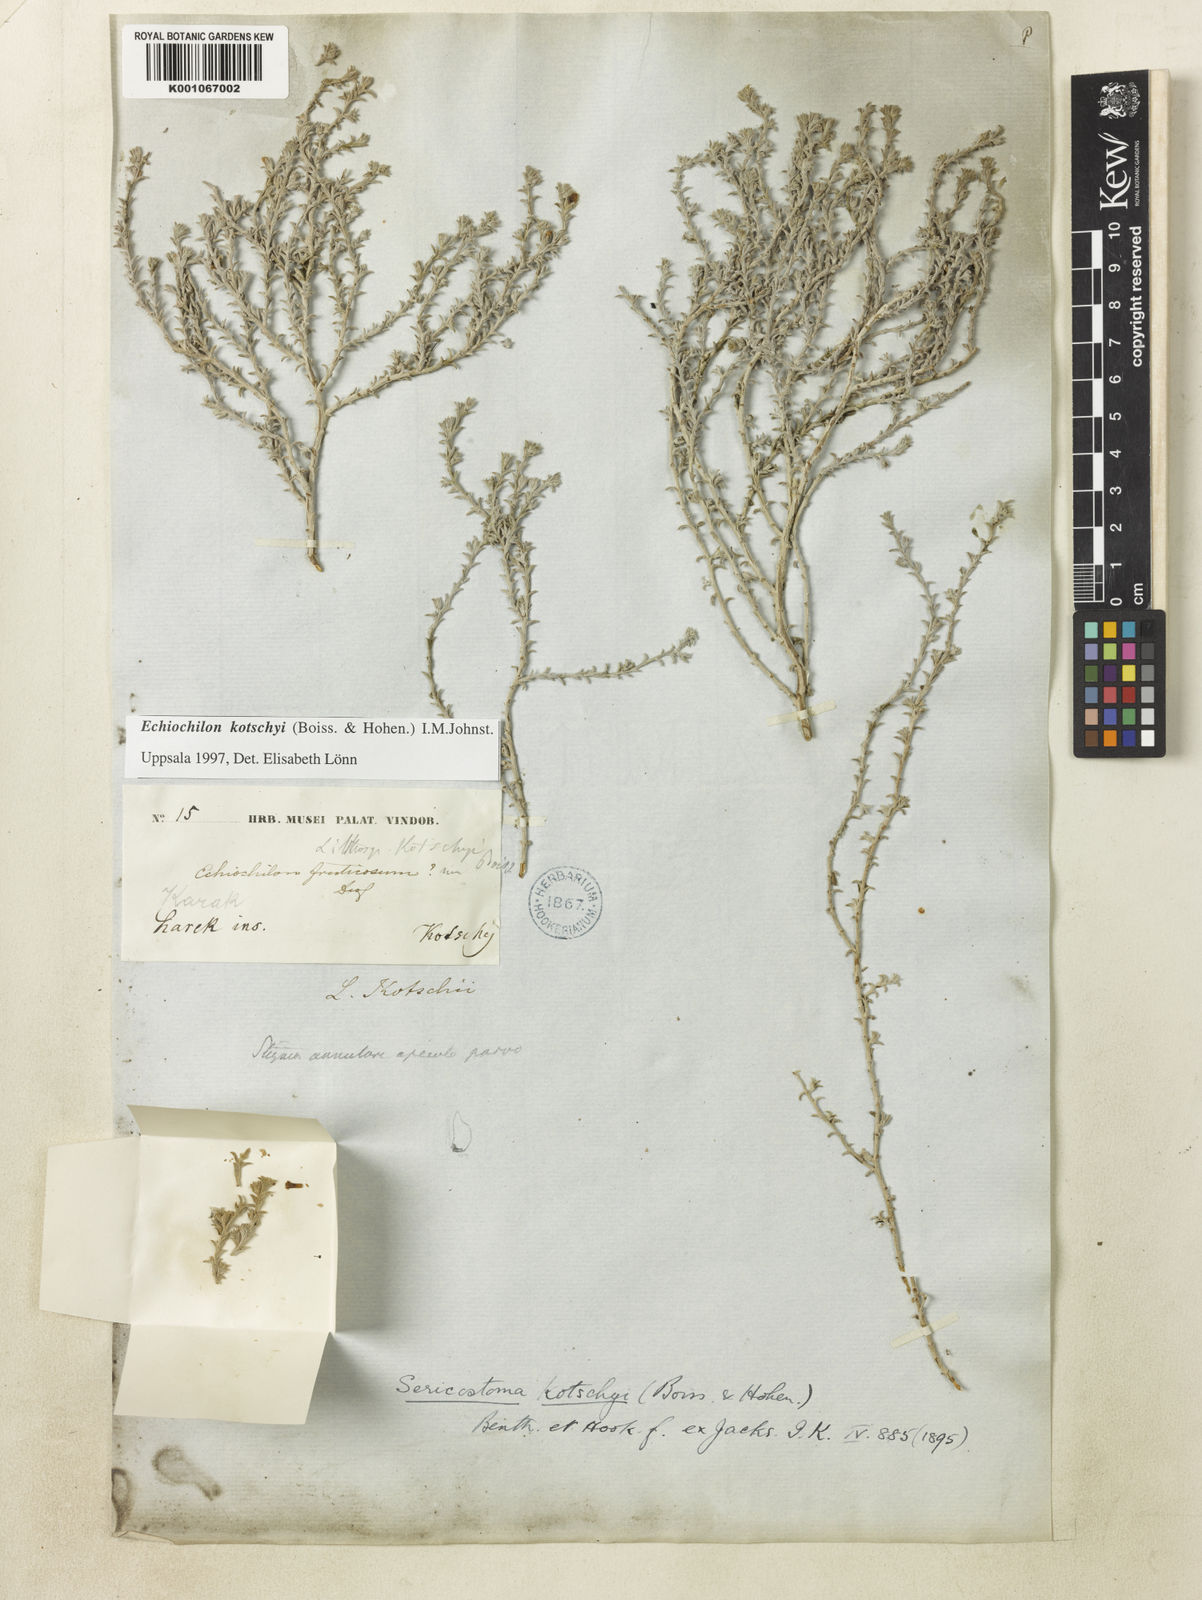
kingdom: Plantae
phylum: Tracheophyta
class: Magnoliopsida
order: Boraginales
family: Boraginaceae
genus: Echiochilon
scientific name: Echiochilon persicum
